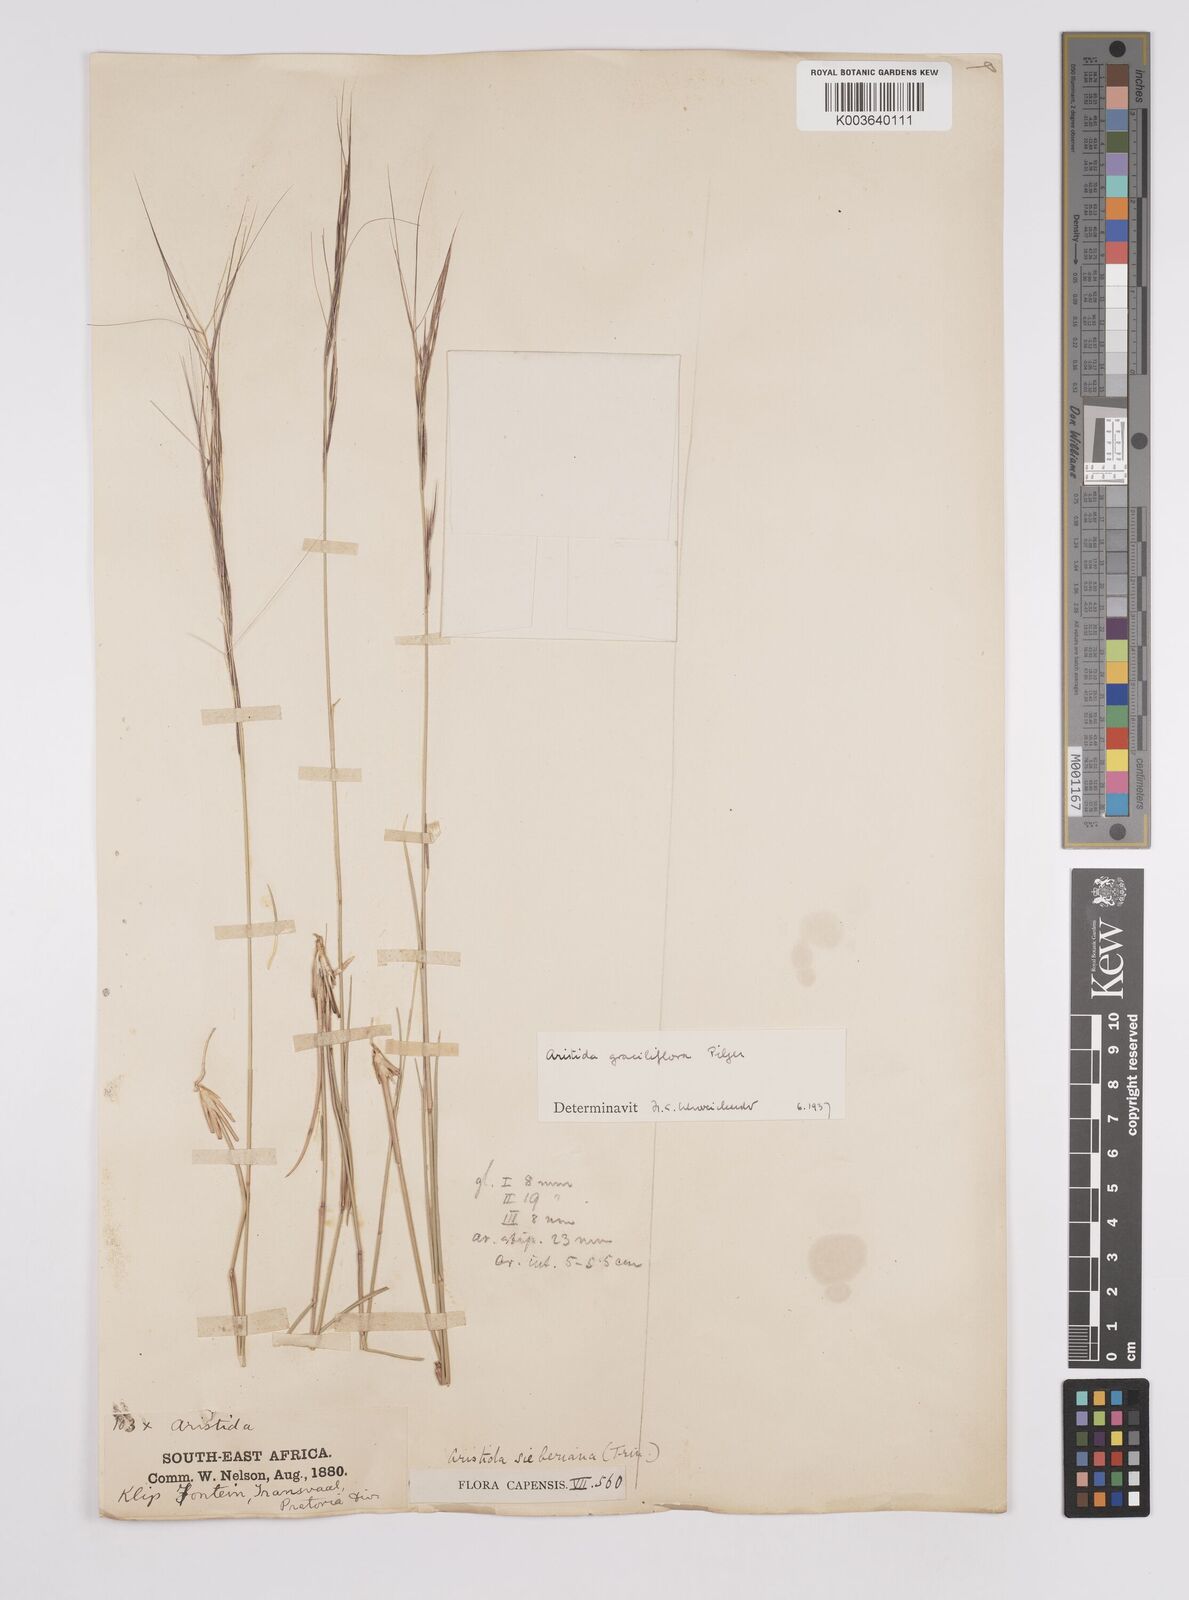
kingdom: Plantae
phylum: Tracheophyta
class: Liliopsida
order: Poales
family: Poaceae
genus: Aristida
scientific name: Aristida stipitata
